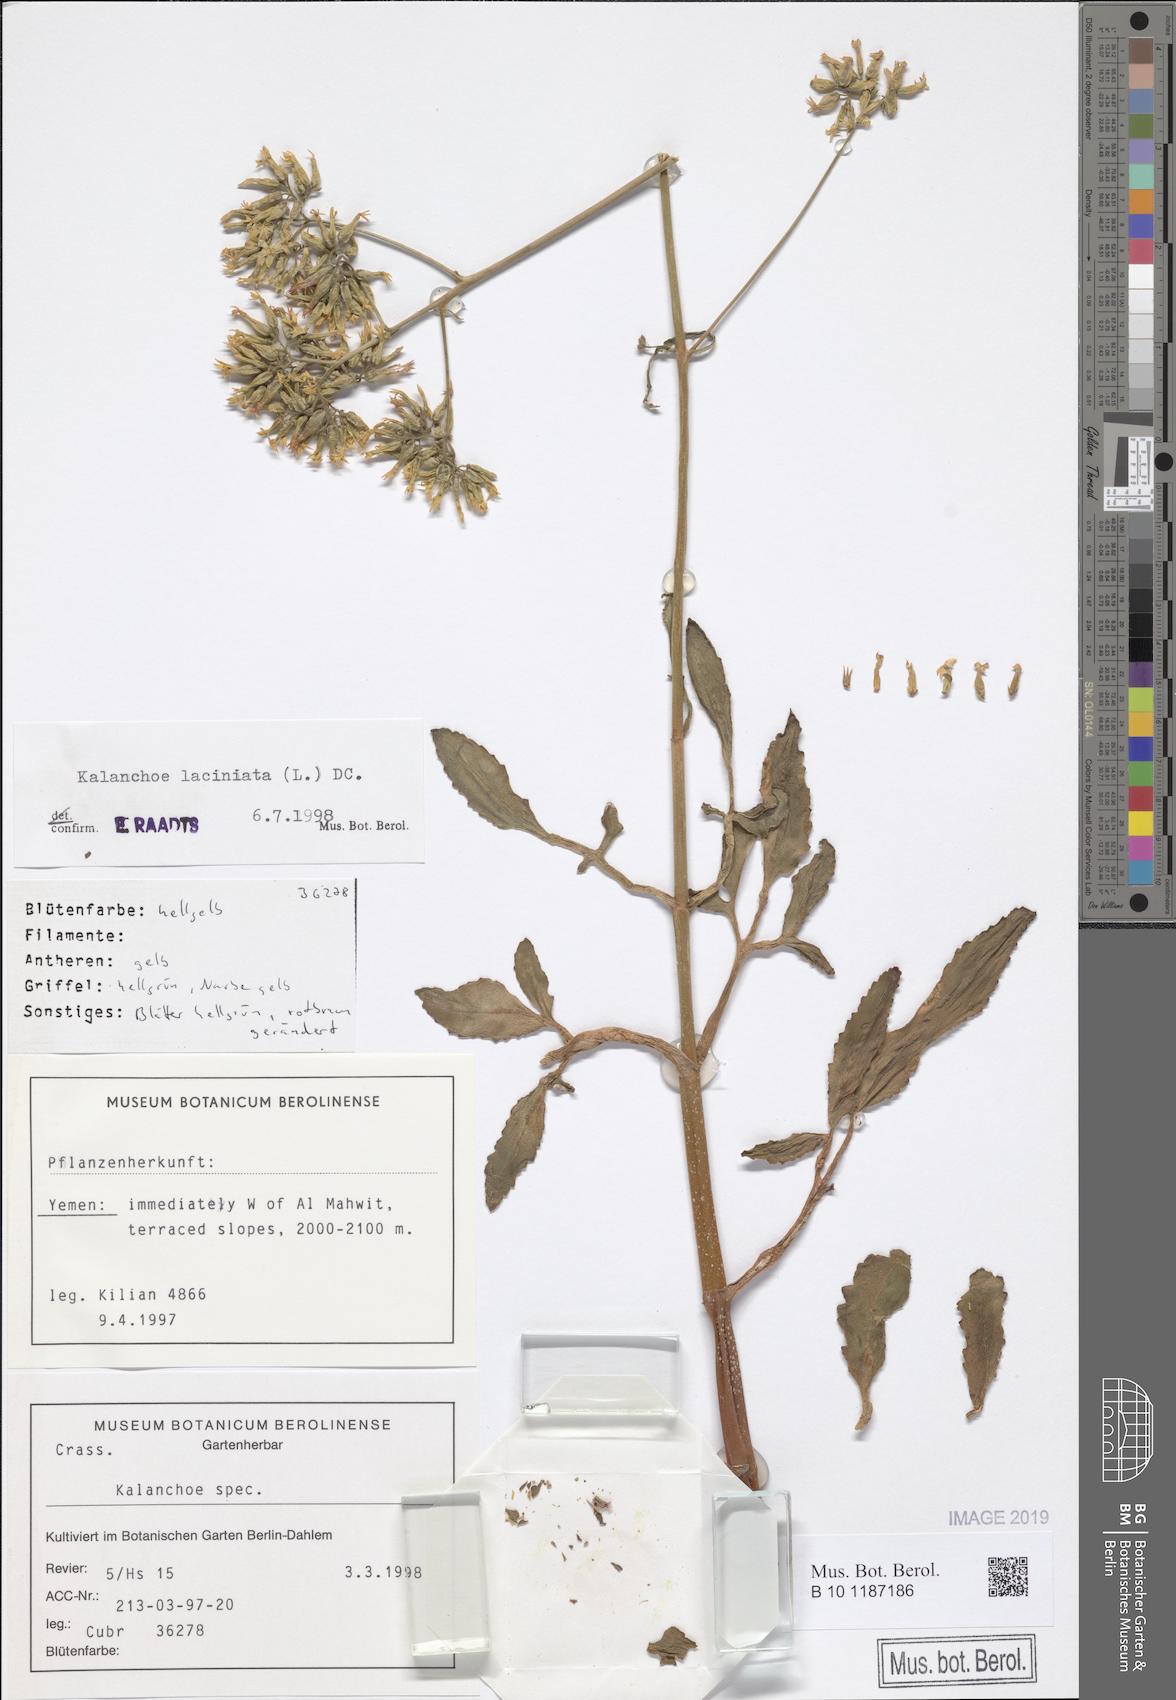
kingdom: Plantae
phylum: Tracheophyta
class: Magnoliopsida
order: Saxifragales
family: Crassulaceae
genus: Kalanchoe
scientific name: Kalanchoe laciniata
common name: Christmastree plant
